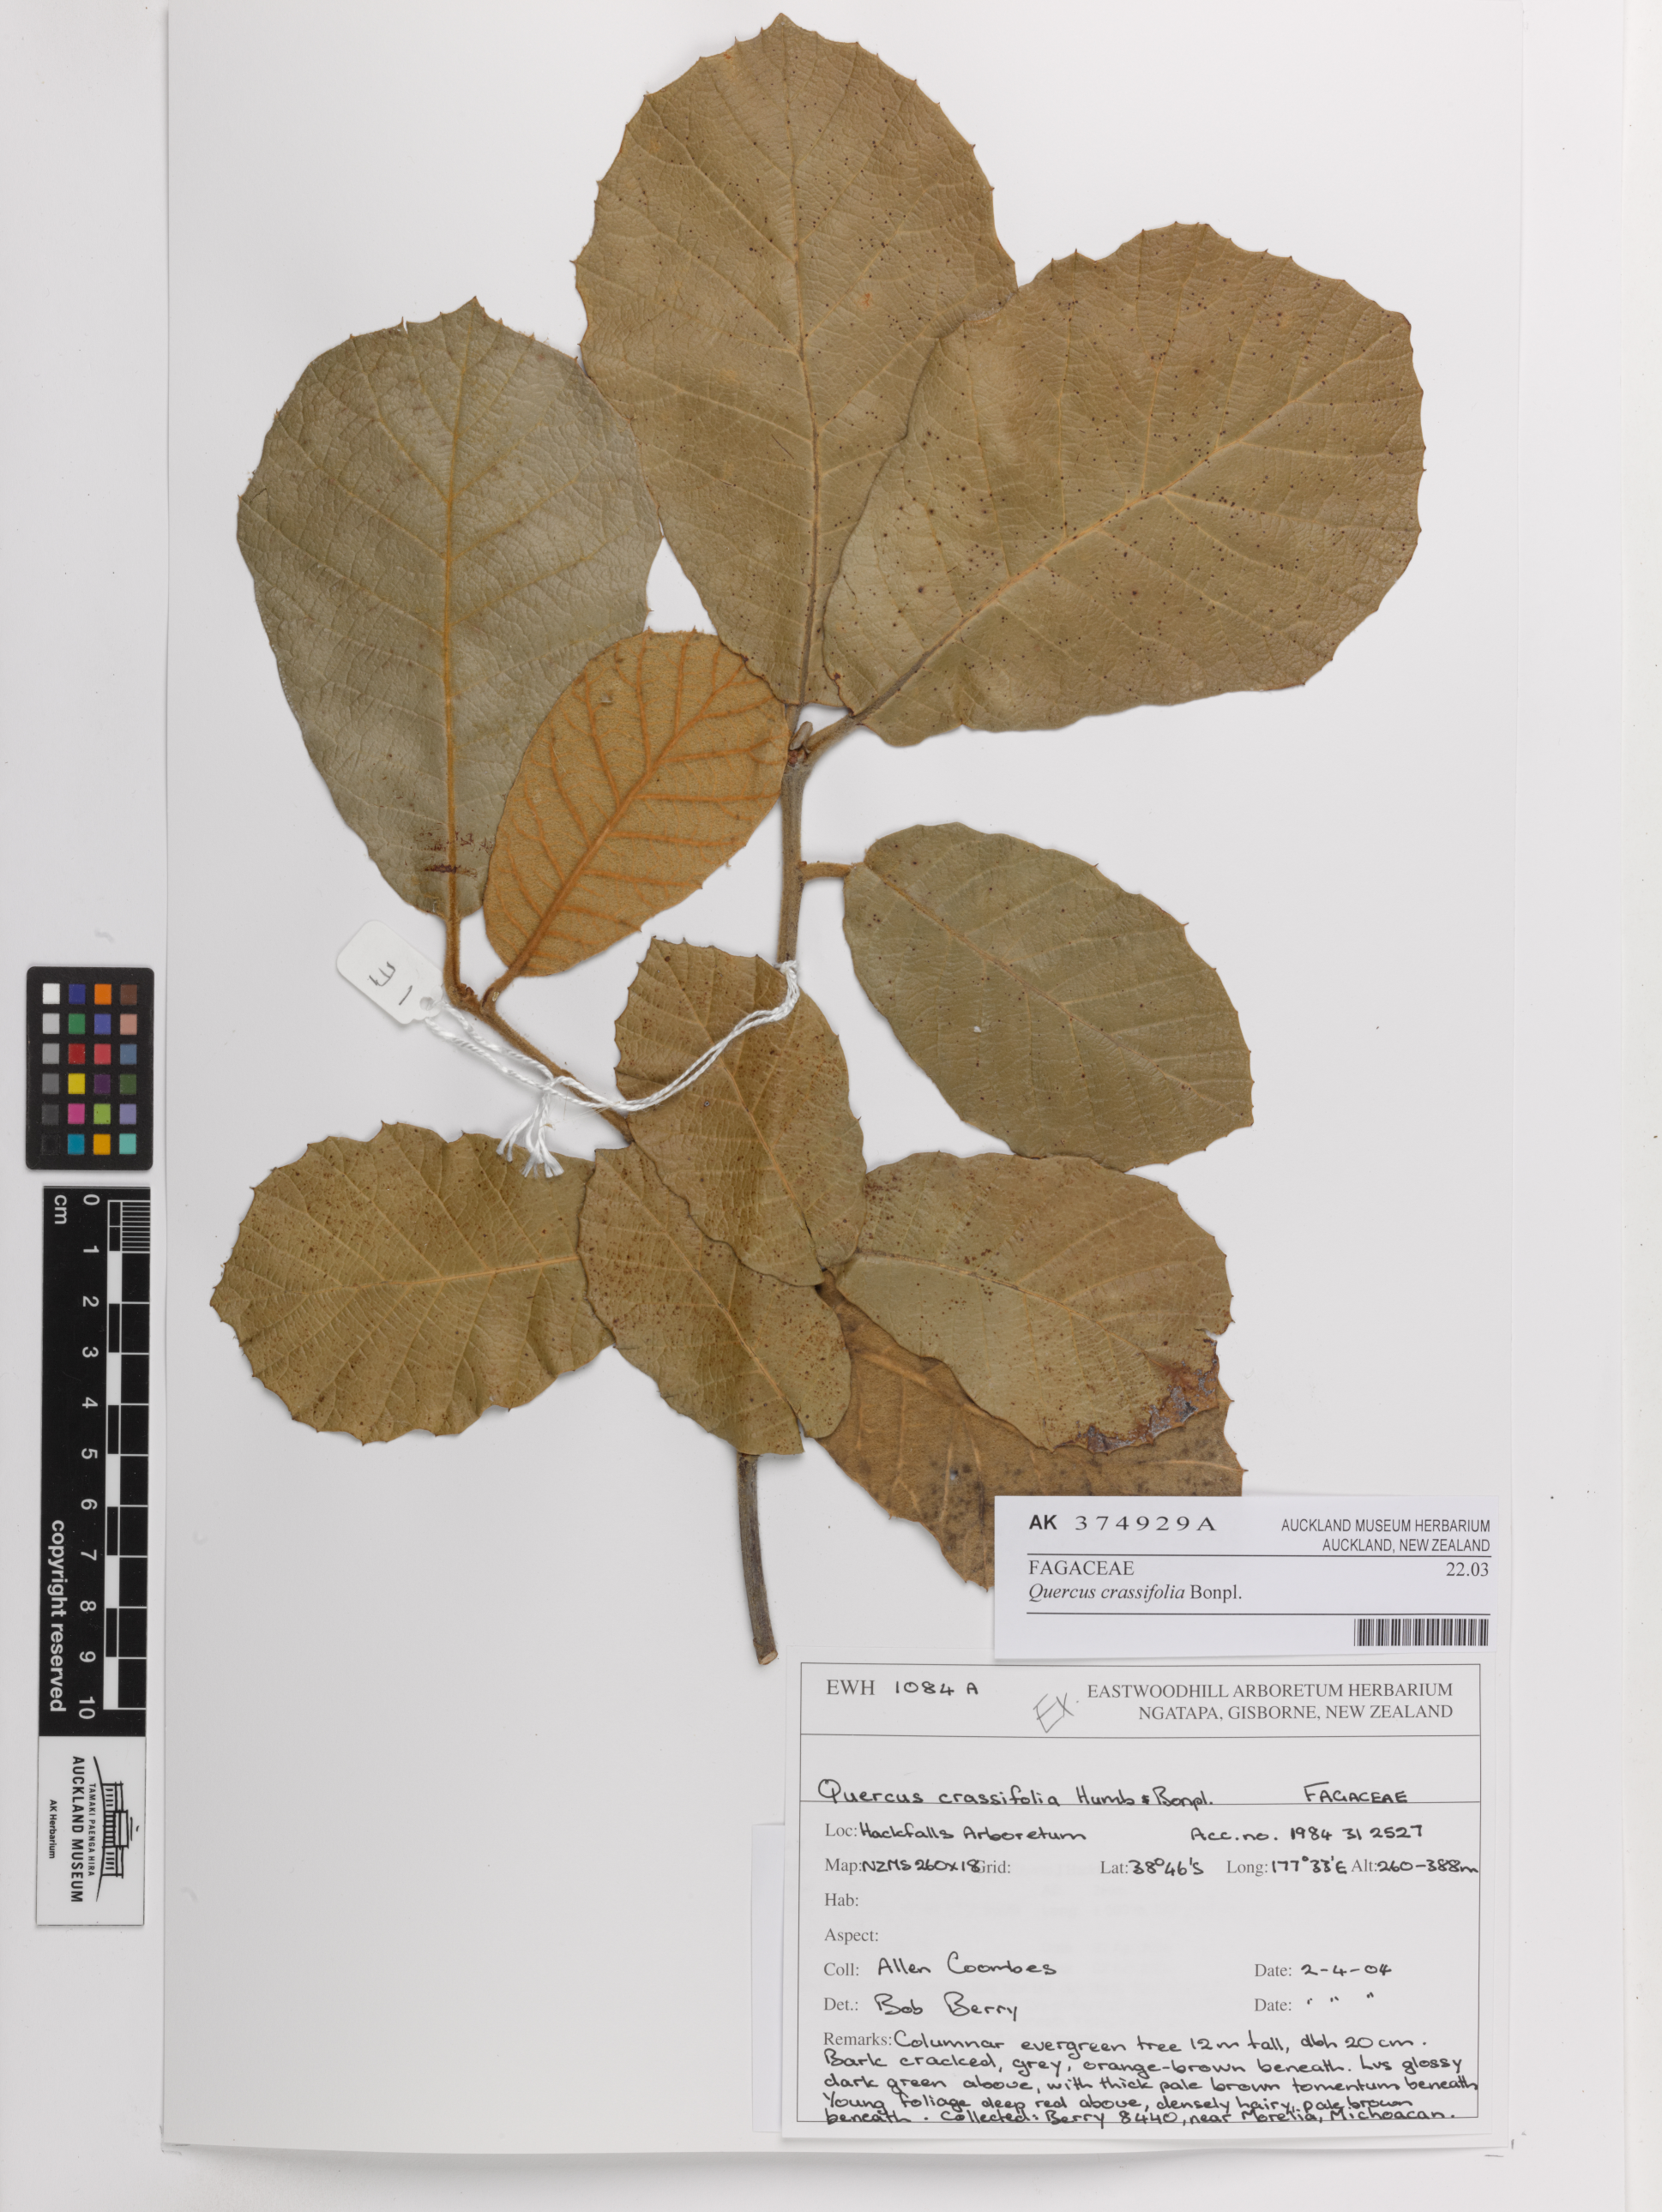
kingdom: Plantae
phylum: Tracheophyta
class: Magnoliopsida
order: Fagales
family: Fagaceae
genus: Quercus
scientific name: Quercus crassifolia
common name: Leather leaf mexican oak
